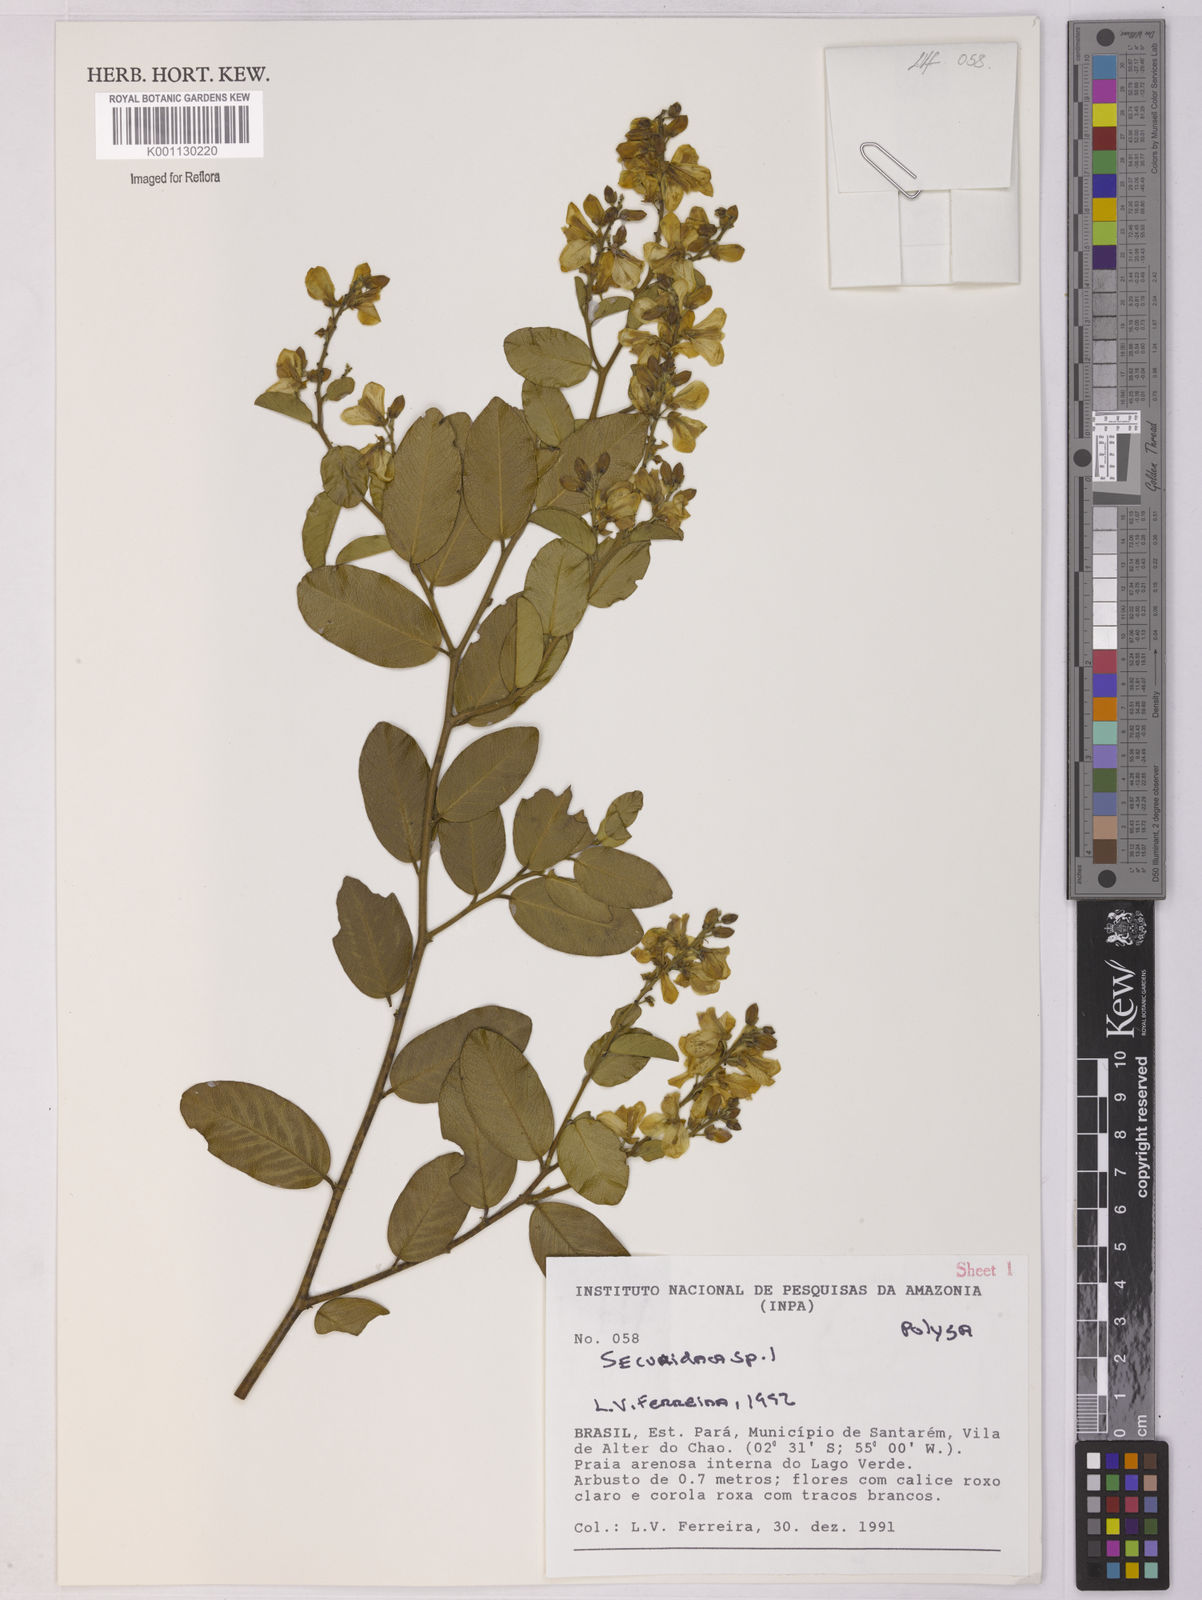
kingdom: Plantae
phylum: Tracheophyta
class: Magnoliopsida
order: Fabales
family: Polygalaceae
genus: Securidaca
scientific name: Securidaca
